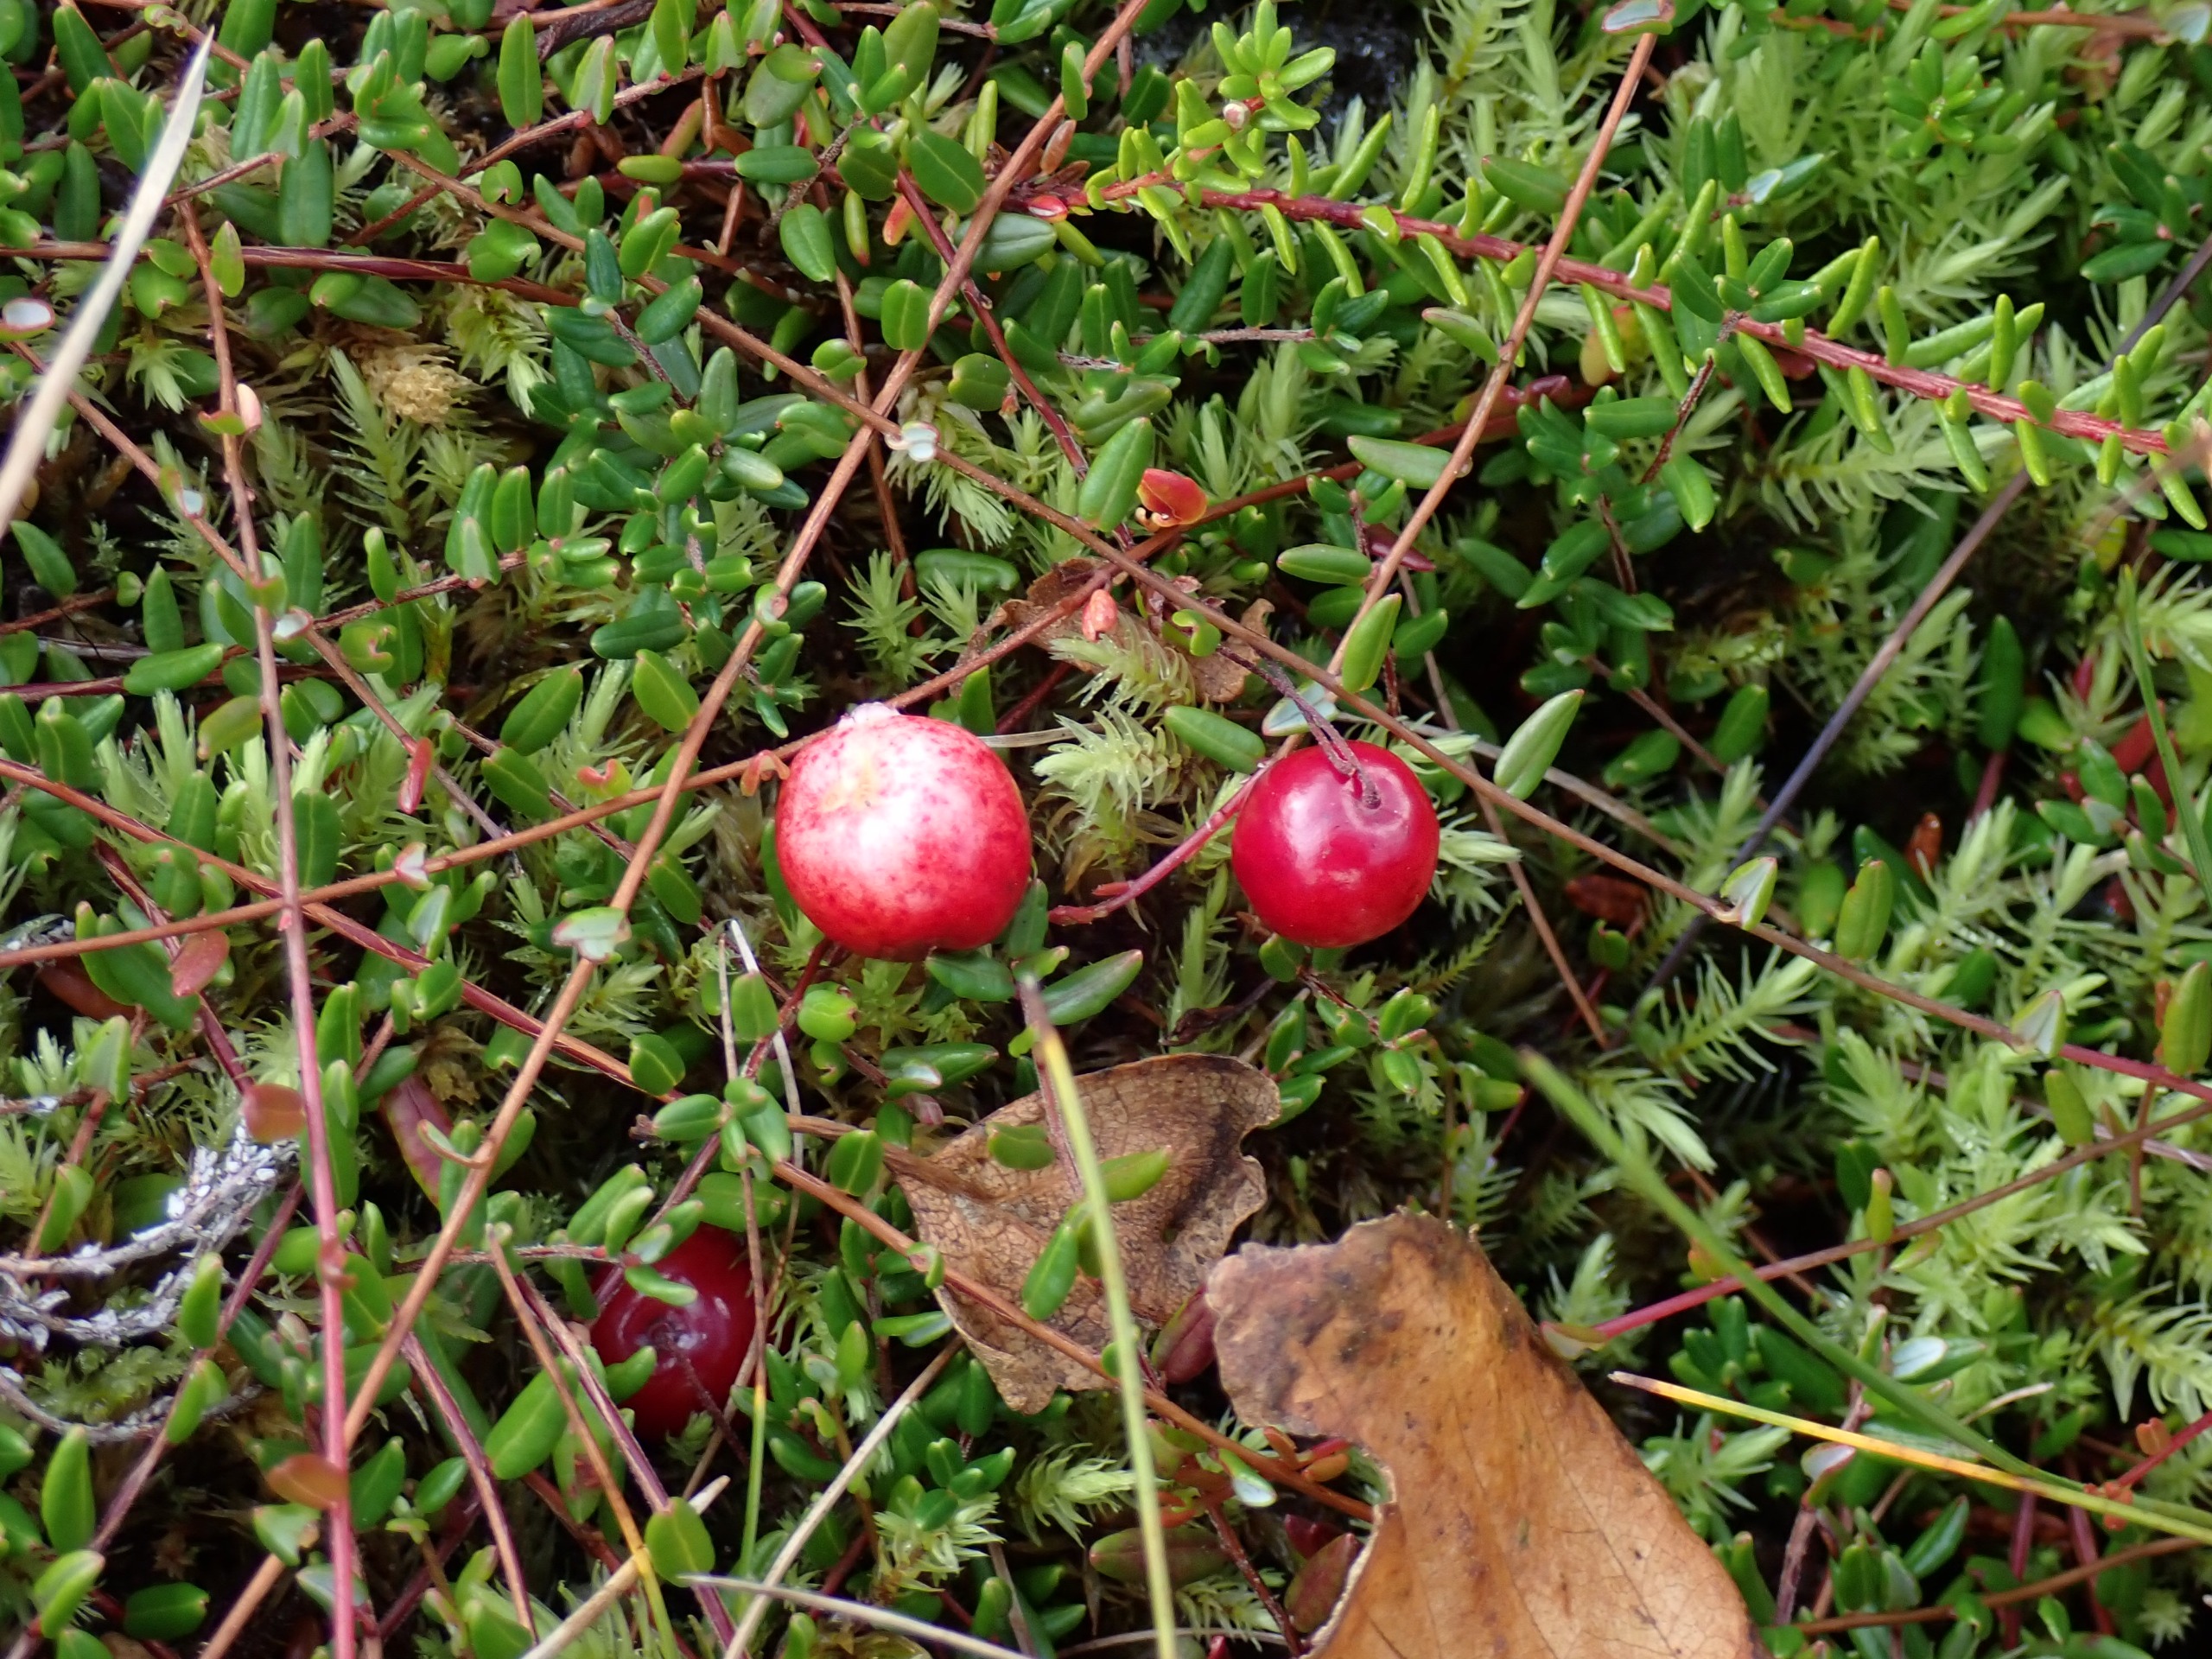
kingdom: Plantae
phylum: Tracheophyta
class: Magnoliopsida
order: Ericales
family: Ericaceae
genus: Vaccinium
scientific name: Vaccinium oxycoccos
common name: Tranebær
